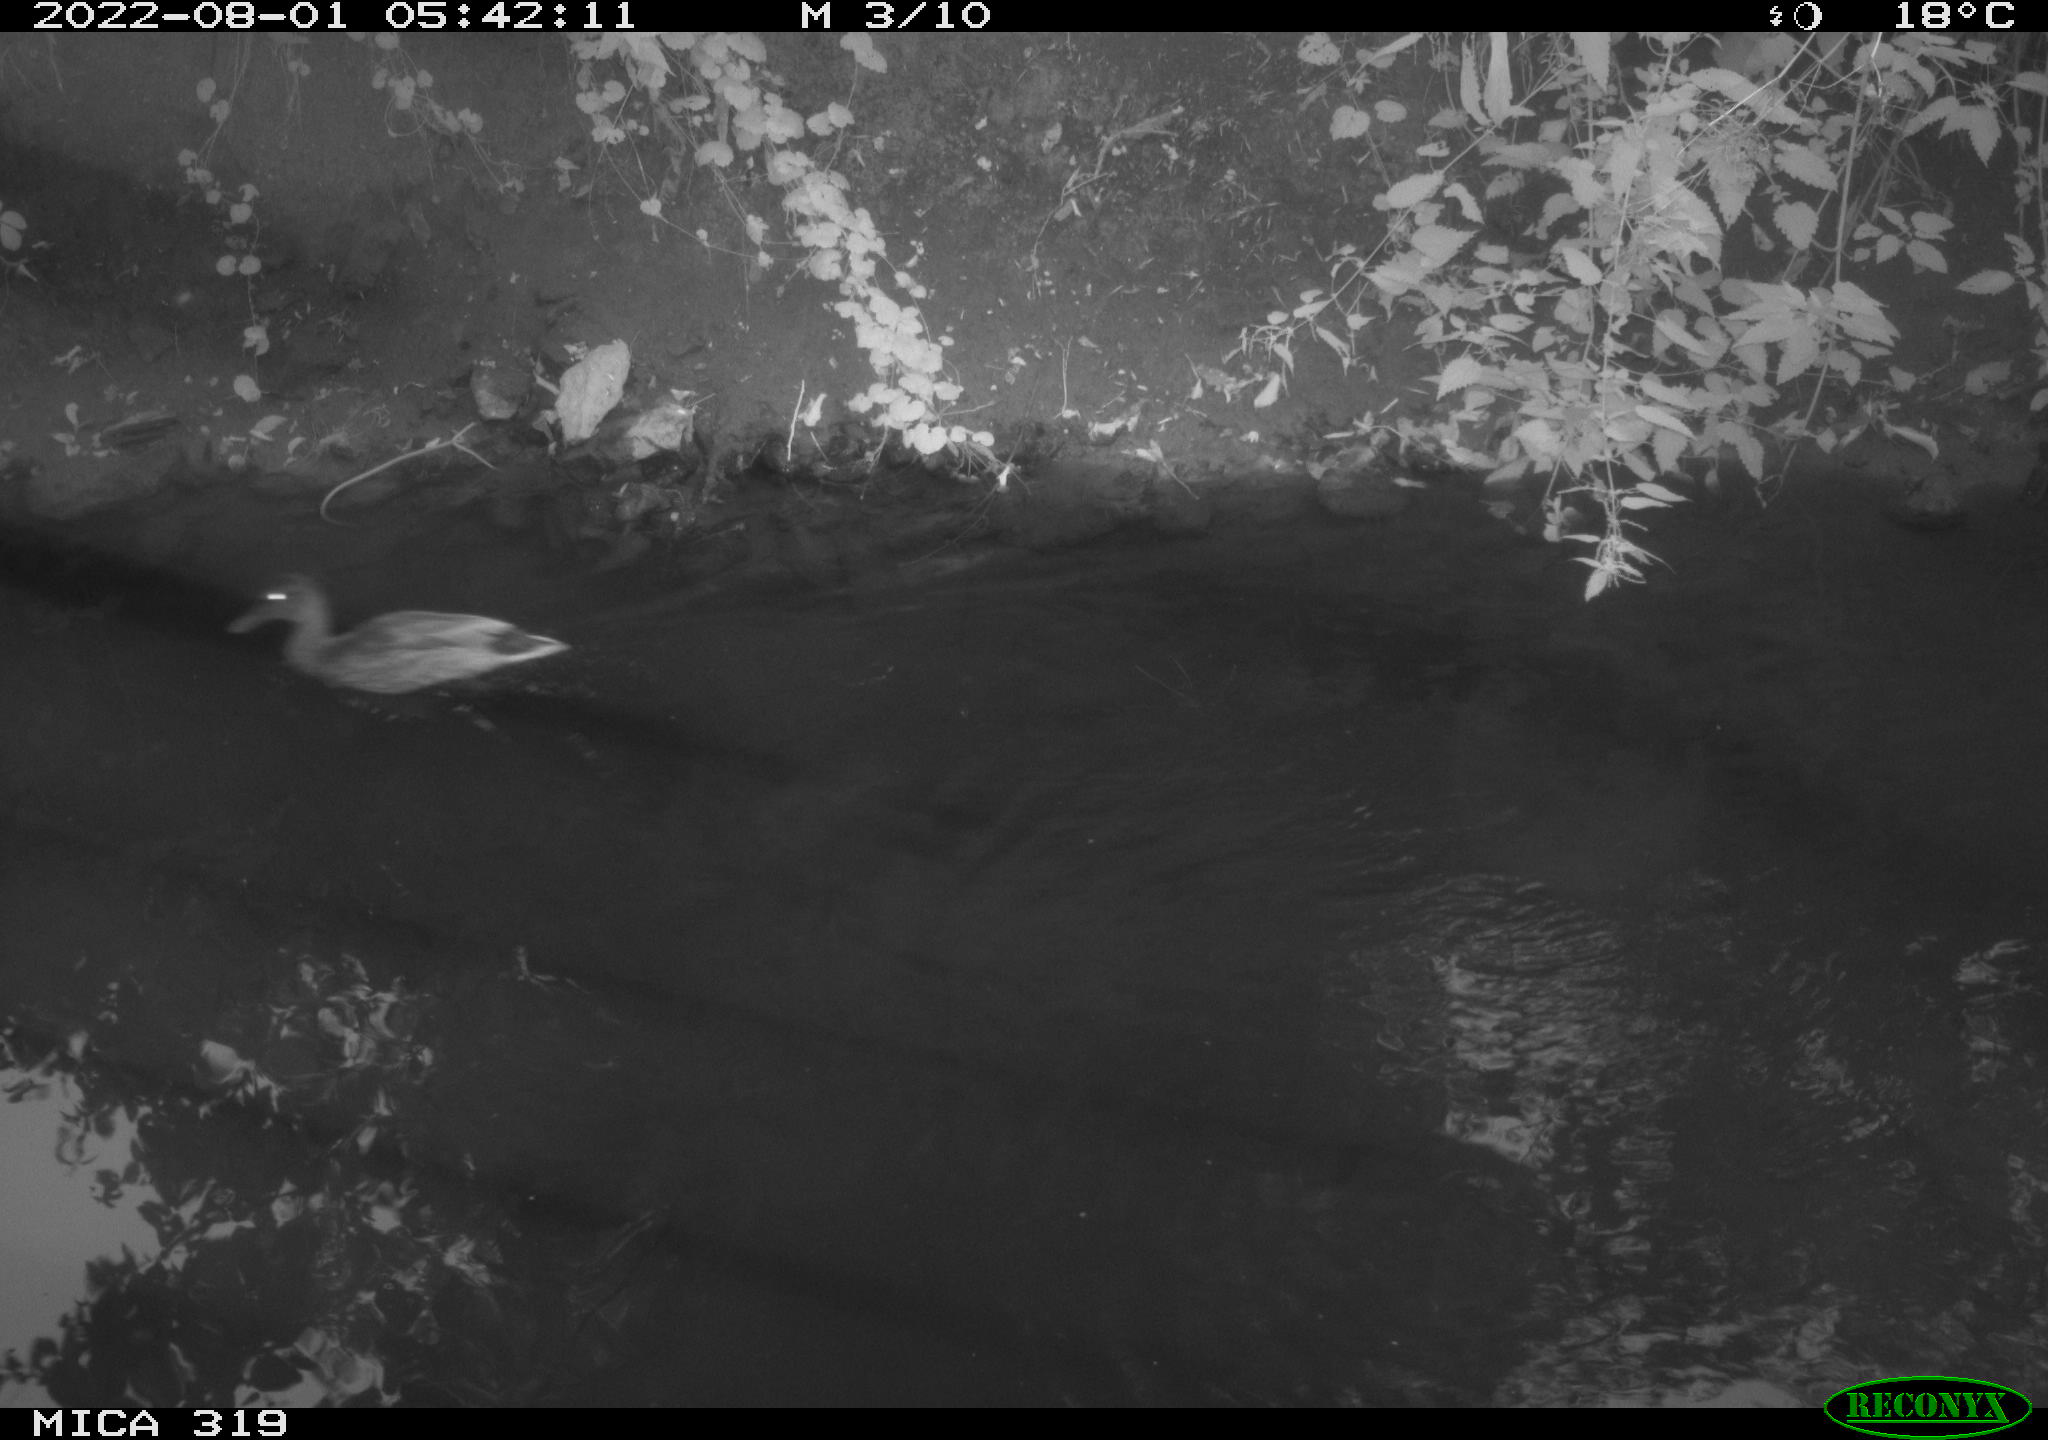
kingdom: Animalia
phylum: Chordata
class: Aves
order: Anseriformes
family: Anatidae
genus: Anas
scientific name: Anas
